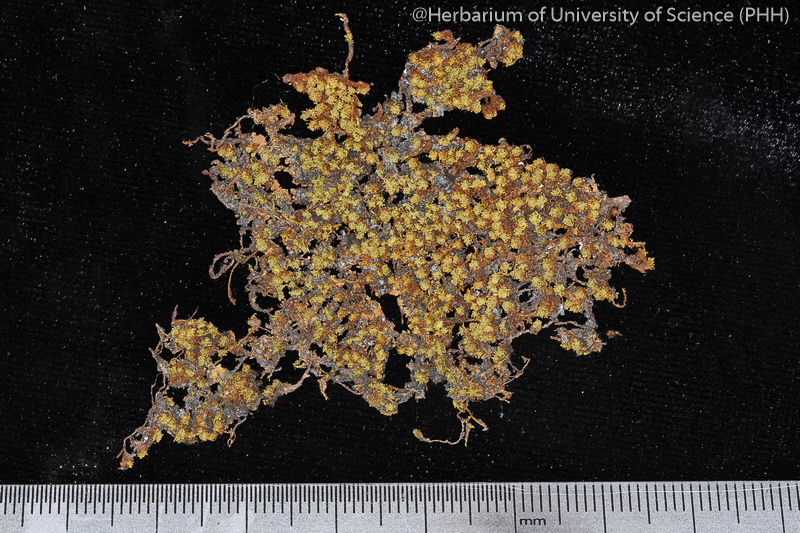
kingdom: Plantae
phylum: Bryophyta
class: Bryopsida
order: Orthotrichales
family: Orthotrichaceae
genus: Macromitrium
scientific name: Macromitrium
